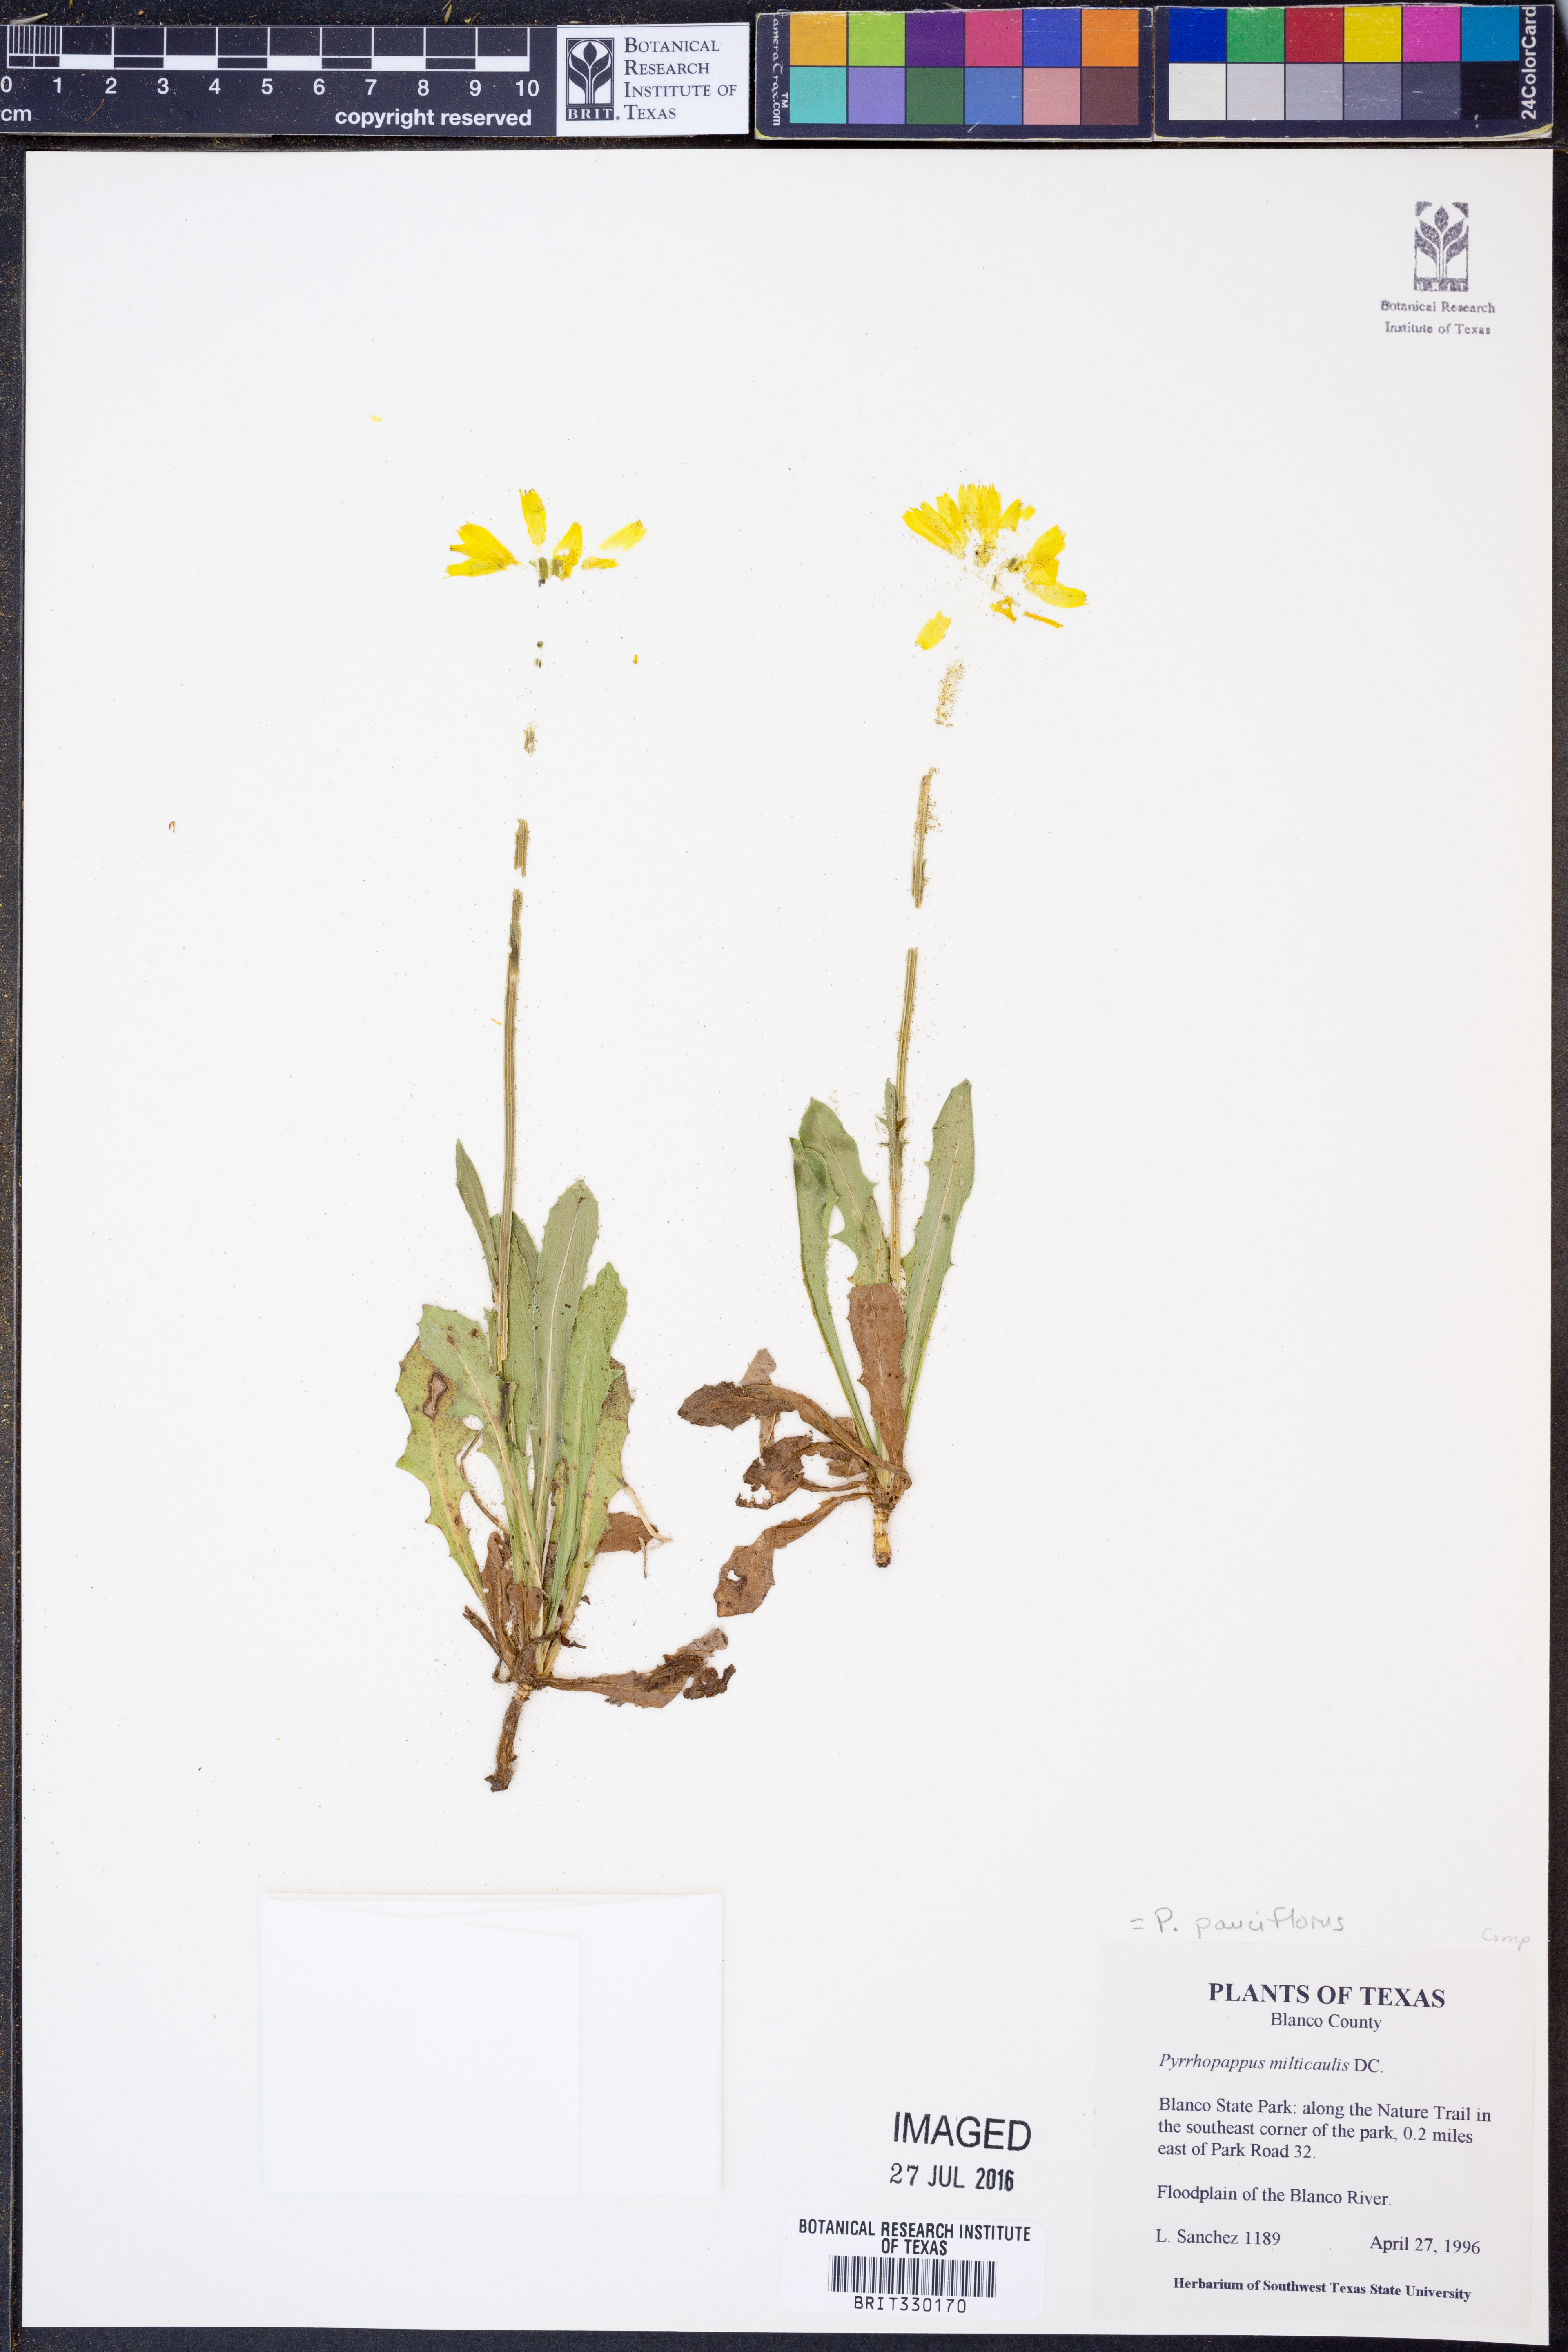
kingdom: Plantae
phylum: Tracheophyta
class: Magnoliopsida
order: Asterales
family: Asteraceae
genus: Pyrrhopappus
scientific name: Pyrrhopappus pauciflorus
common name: Texas false dandelion
